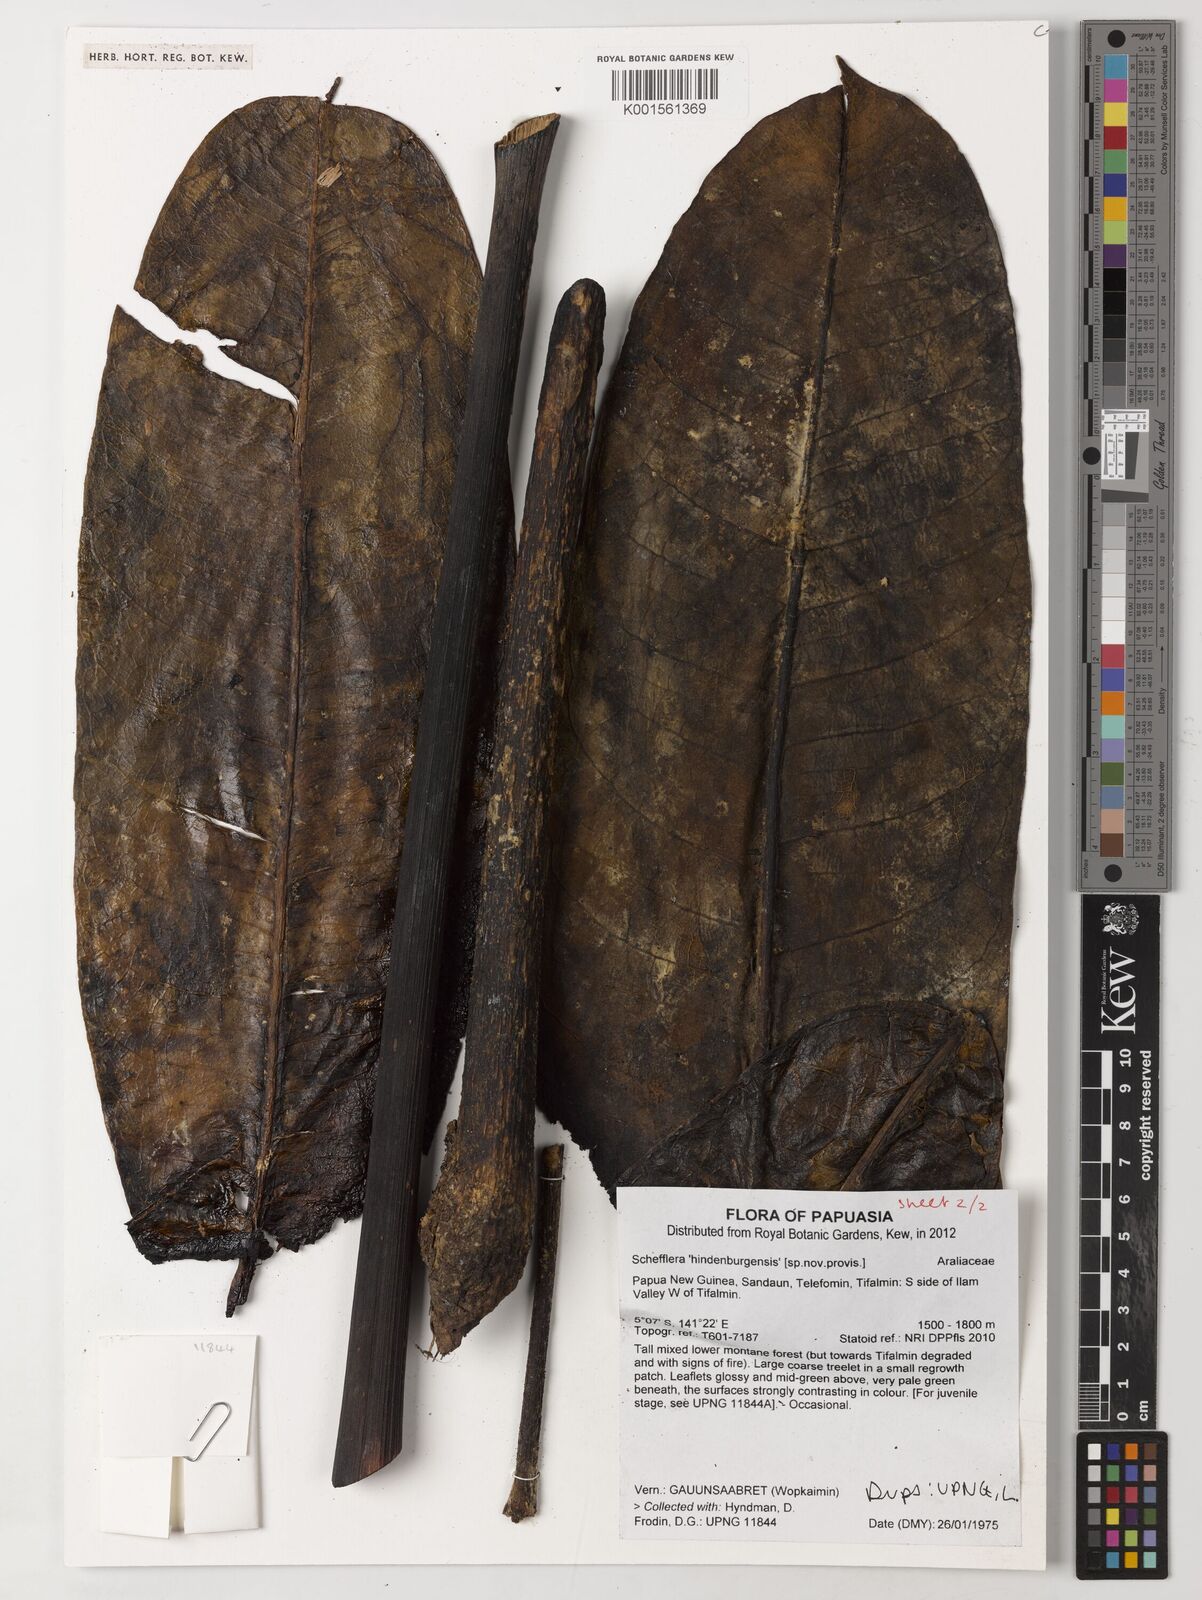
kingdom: Plantae
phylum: Tracheophyta
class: Magnoliopsida
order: Apiales
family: Araliaceae
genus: Schefflera
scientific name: Schefflera
